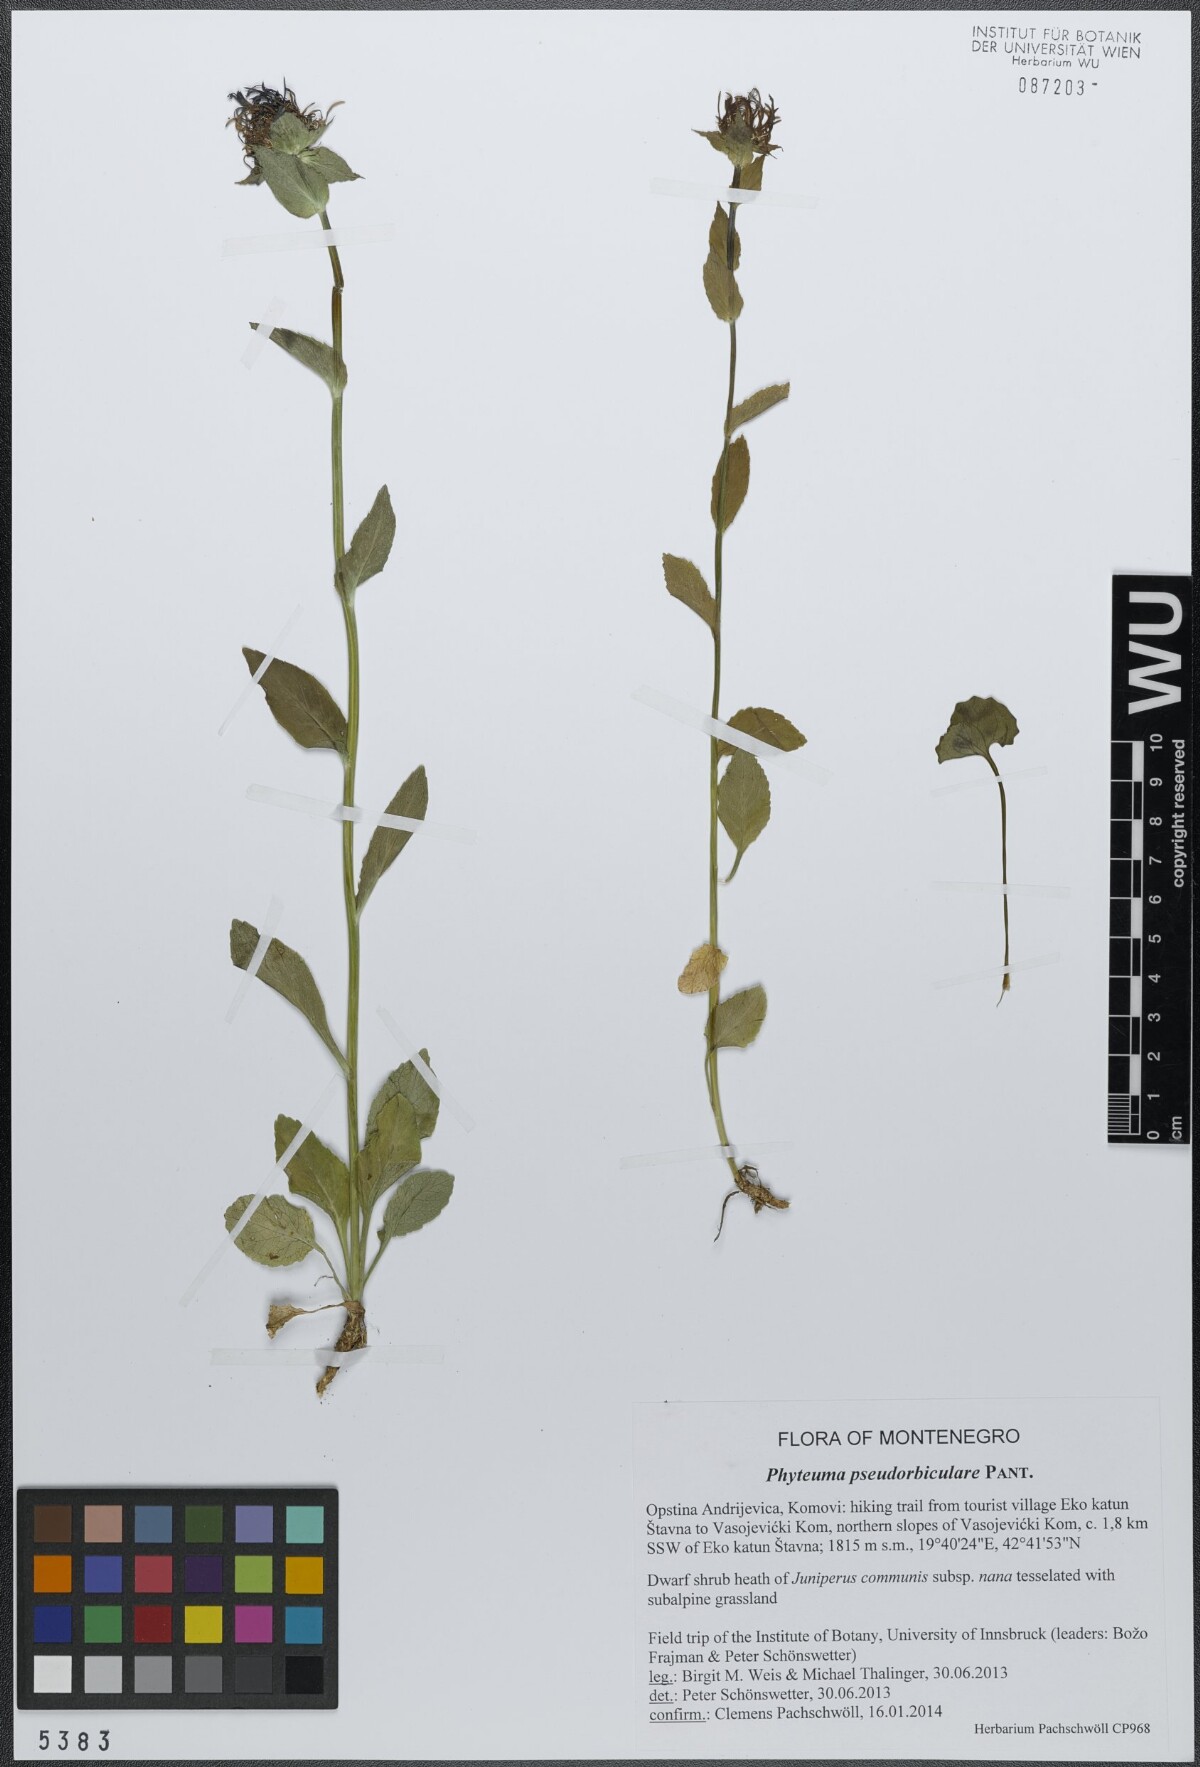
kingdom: Plantae
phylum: Tracheophyta
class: Magnoliopsida
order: Asterales
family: Campanulaceae
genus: Phyteuma
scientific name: Phyteuma orbiculare
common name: Round-headed rampion
